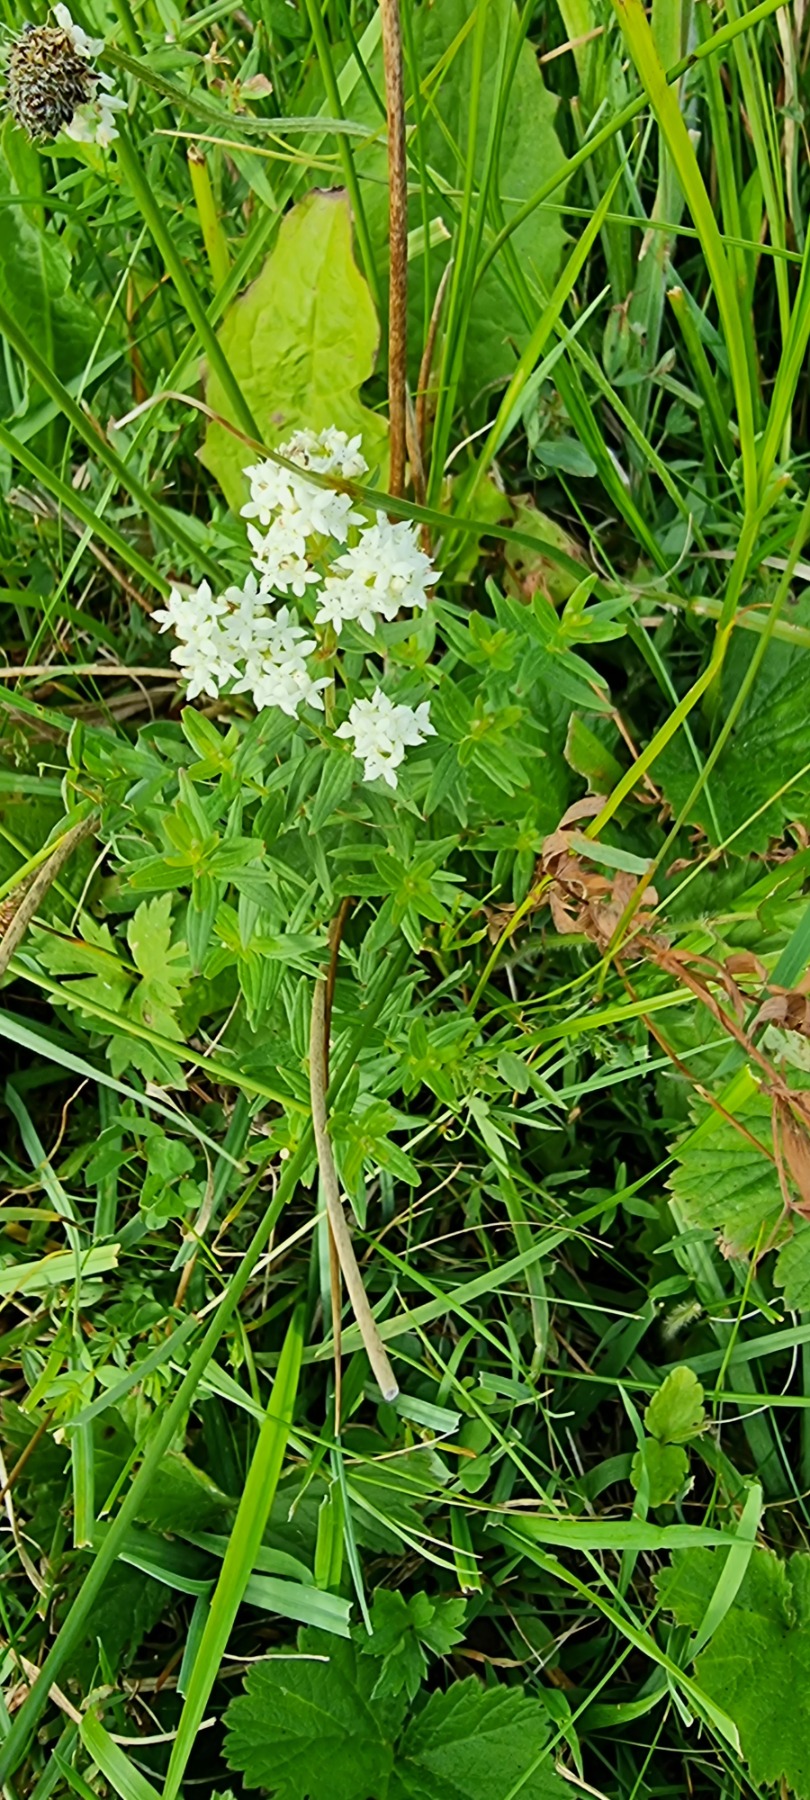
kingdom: Plantae
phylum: Tracheophyta
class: Magnoliopsida
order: Gentianales
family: Rubiaceae
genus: Galium
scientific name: Galium boreale
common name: Trenervet snerre
